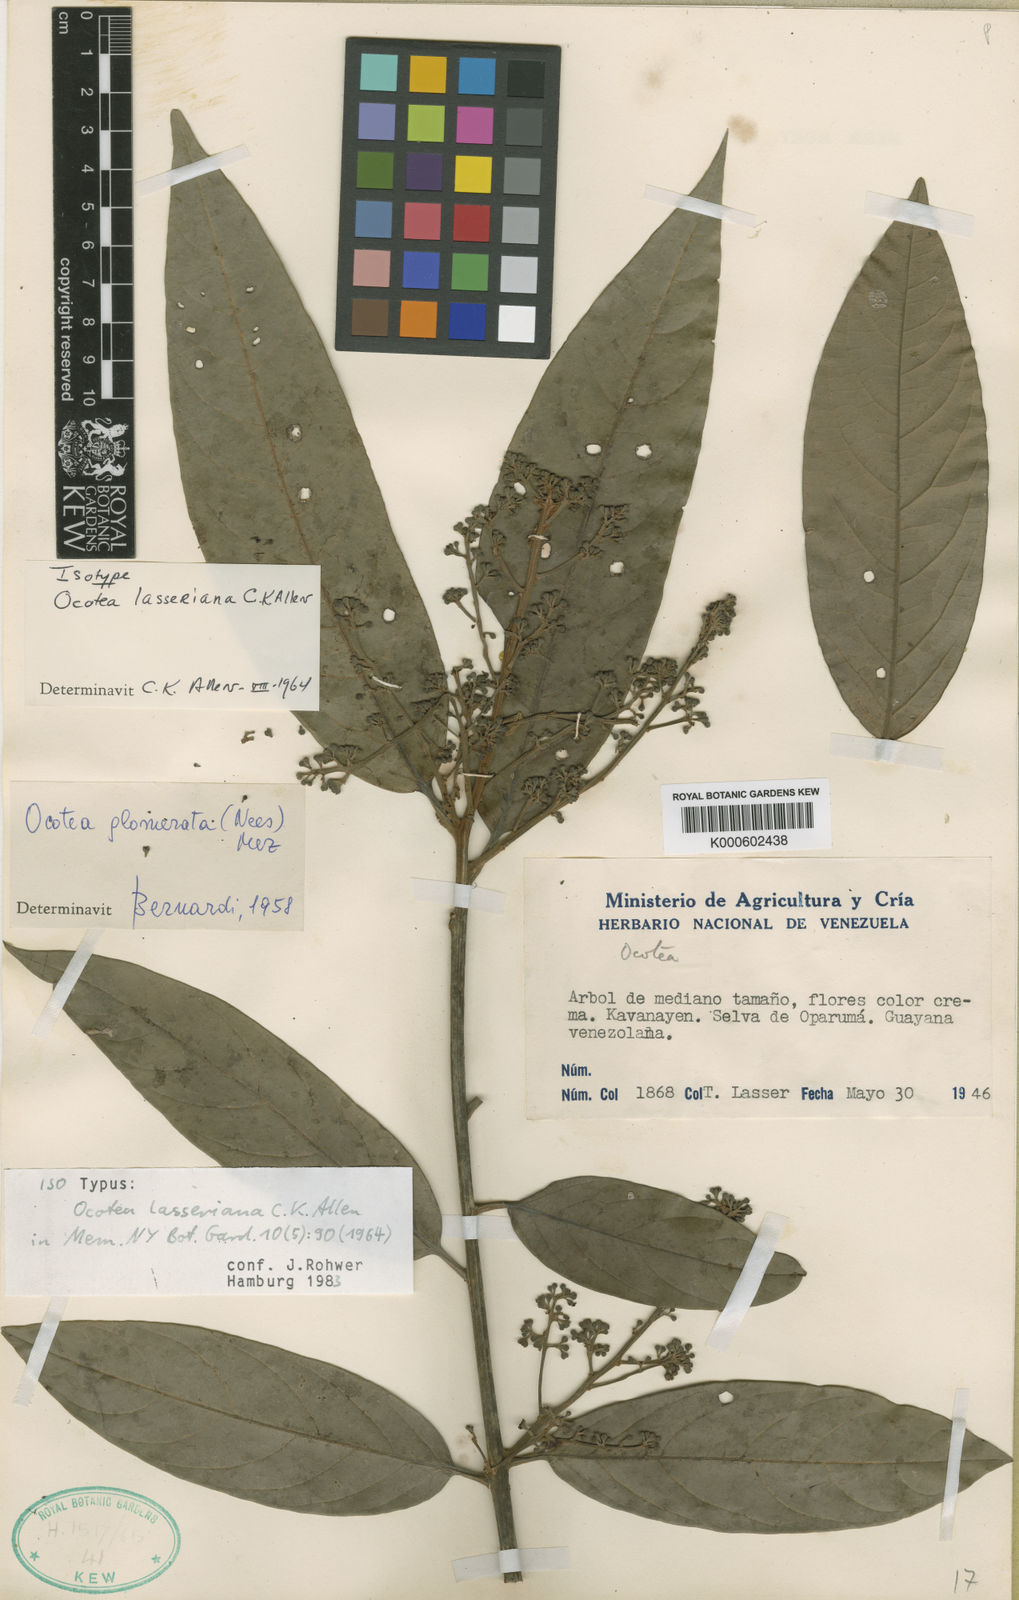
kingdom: Plantae
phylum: Tracheophyta
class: Magnoliopsida
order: Laurales
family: Lauraceae
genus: Ocotea
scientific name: Ocotea leucoxylon
